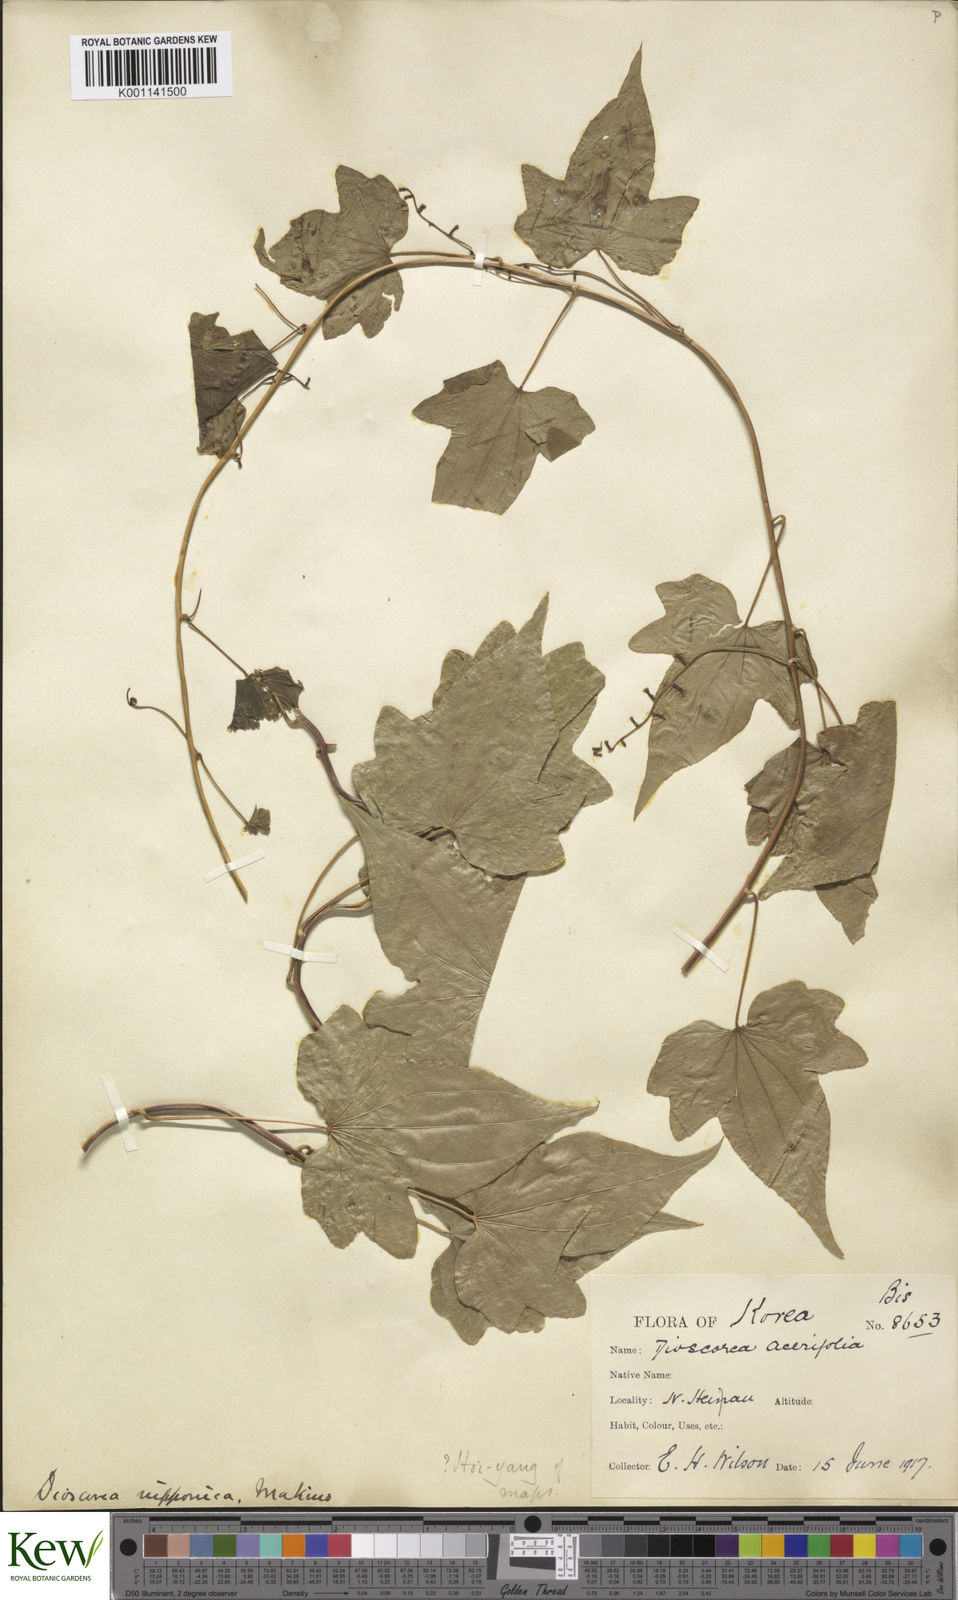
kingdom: Plantae
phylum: Tracheophyta
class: Liliopsida
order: Dioscoreales
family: Dioscoreaceae
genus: Dioscorea
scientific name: Dioscorea nipponica
